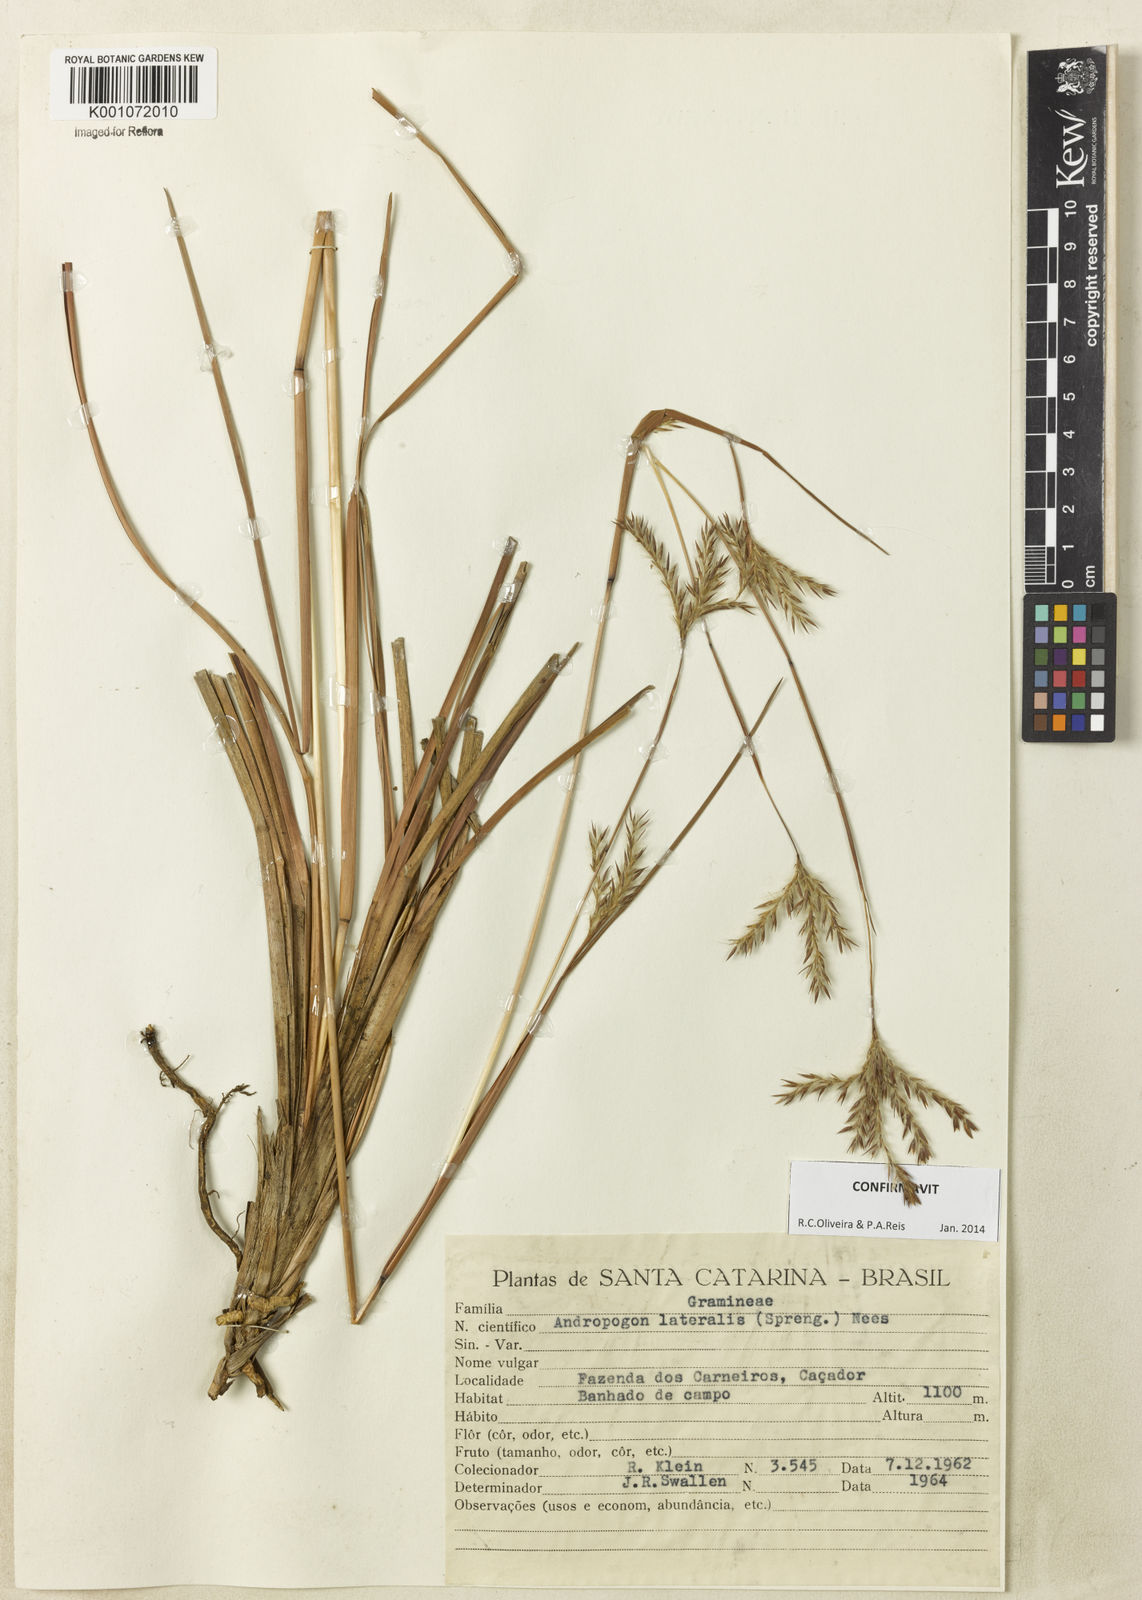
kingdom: Plantae
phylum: Tracheophyta
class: Liliopsida
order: Poales
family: Poaceae
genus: Andropogon
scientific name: Andropogon lateralis
